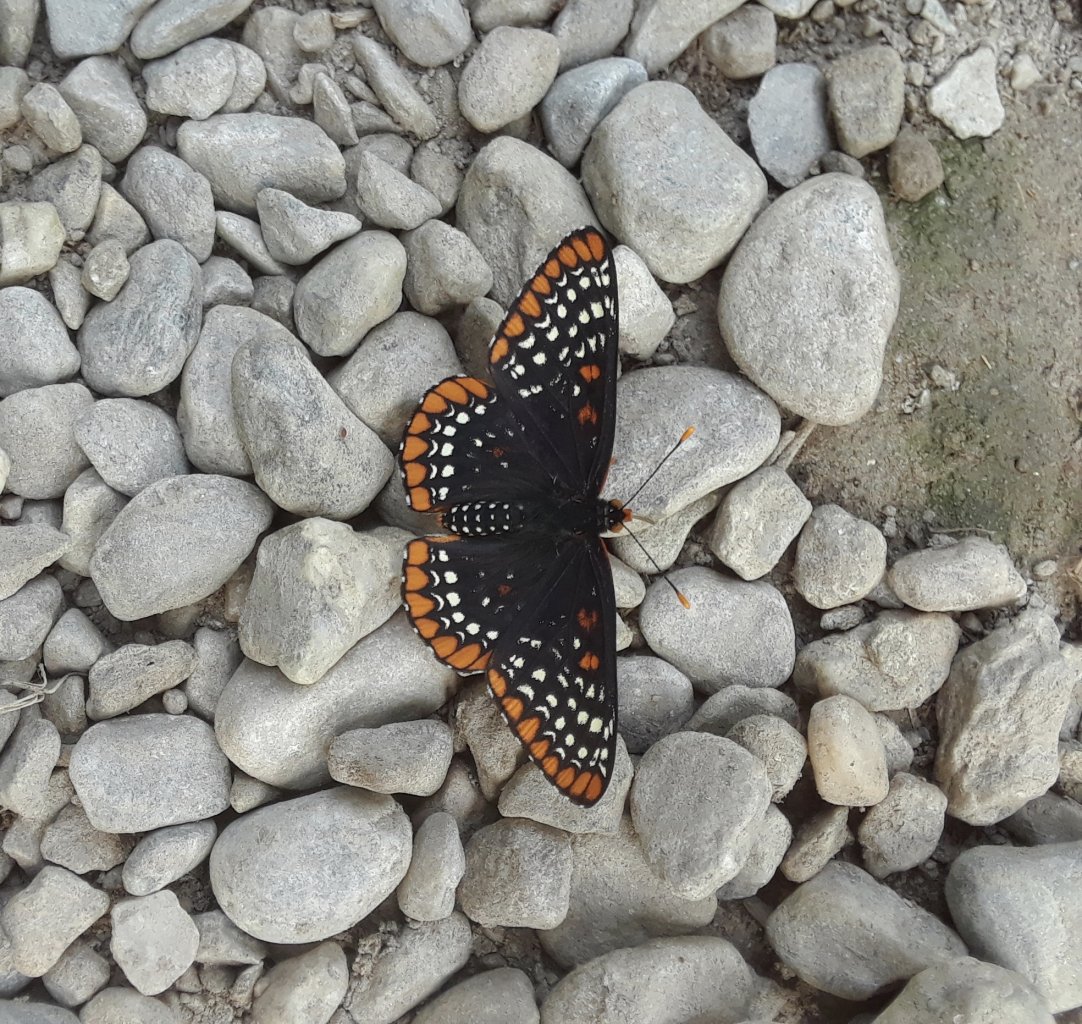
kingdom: Animalia
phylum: Arthropoda
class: Insecta
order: Lepidoptera
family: Nymphalidae
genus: Euphydryas
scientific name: Euphydryas phaeton
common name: Baltimore Checkerspot
